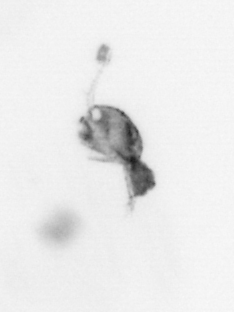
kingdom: Animalia
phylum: Arthropoda
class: Copepoda
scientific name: Copepoda
